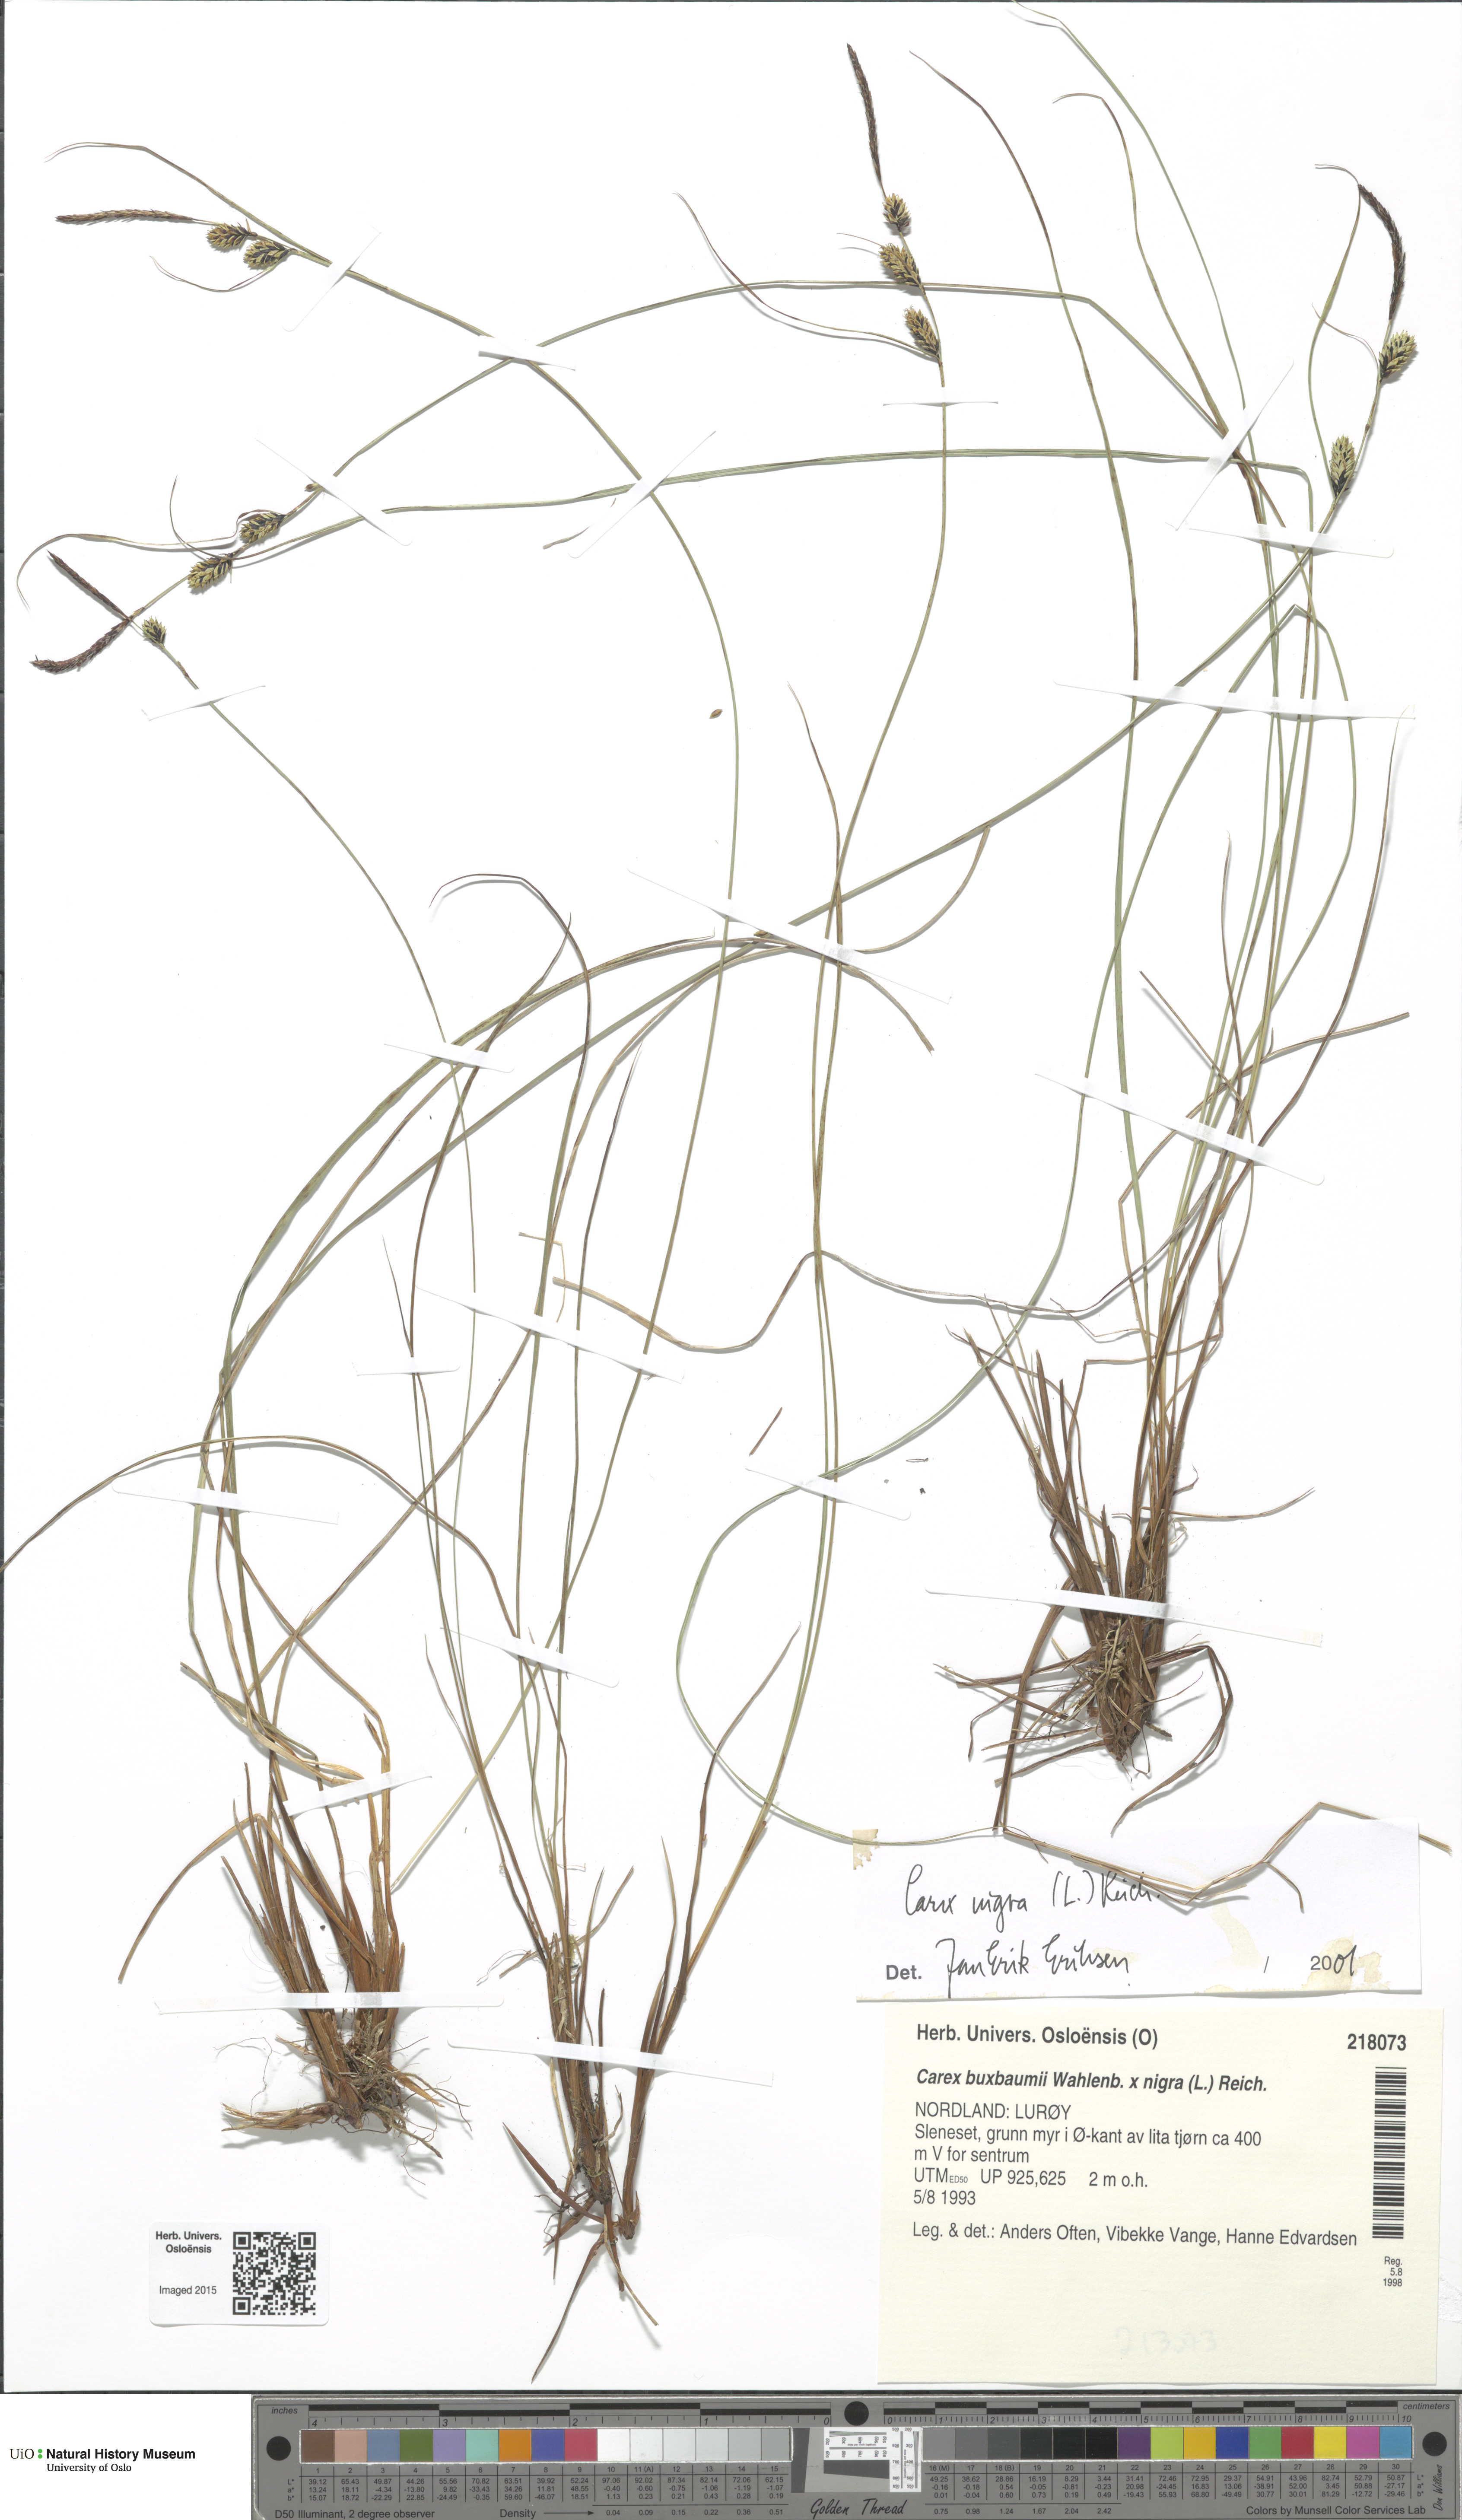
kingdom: Plantae
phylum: Tracheophyta
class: Liliopsida
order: Poales
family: Cyperaceae
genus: Carex
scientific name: Carex nigra
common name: Common sedge
